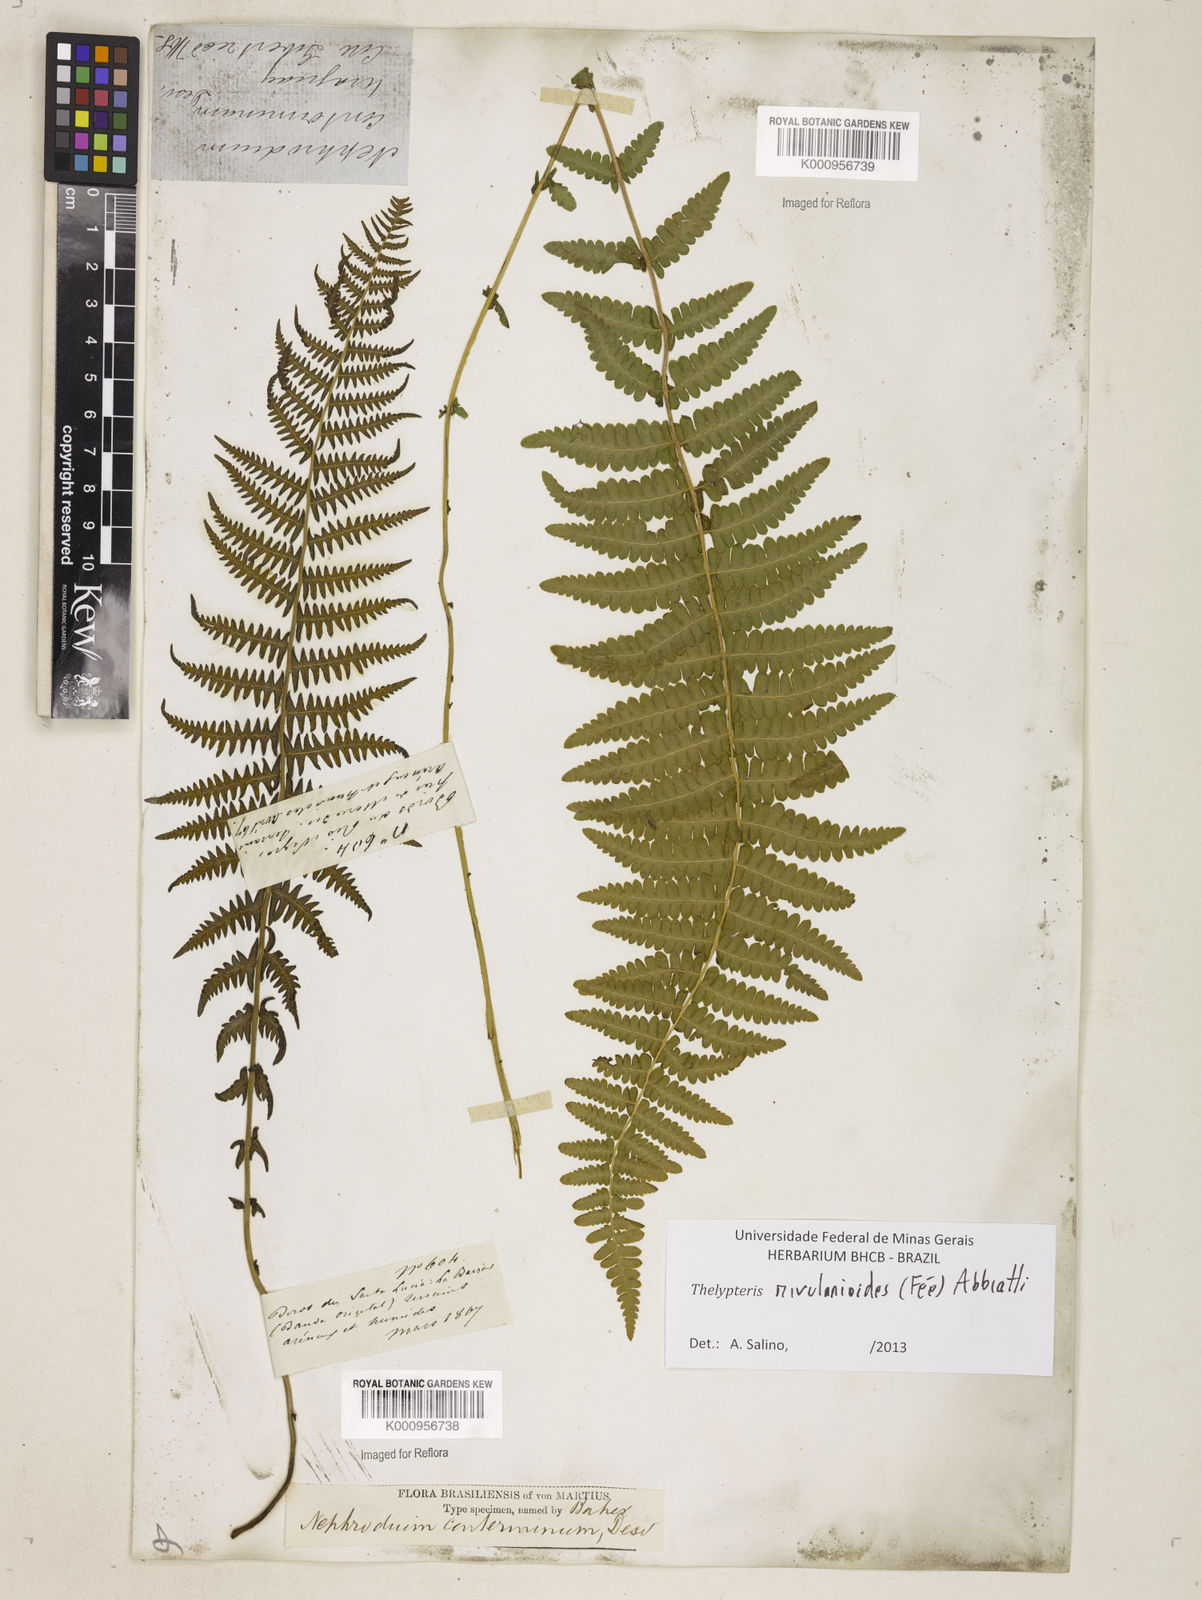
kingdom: Plantae
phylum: Tracheophyta
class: Polypodiopsida
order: Polypodiales
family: Thelypteridaceae
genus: Amauropelta
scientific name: Amauropelta rivularioides
